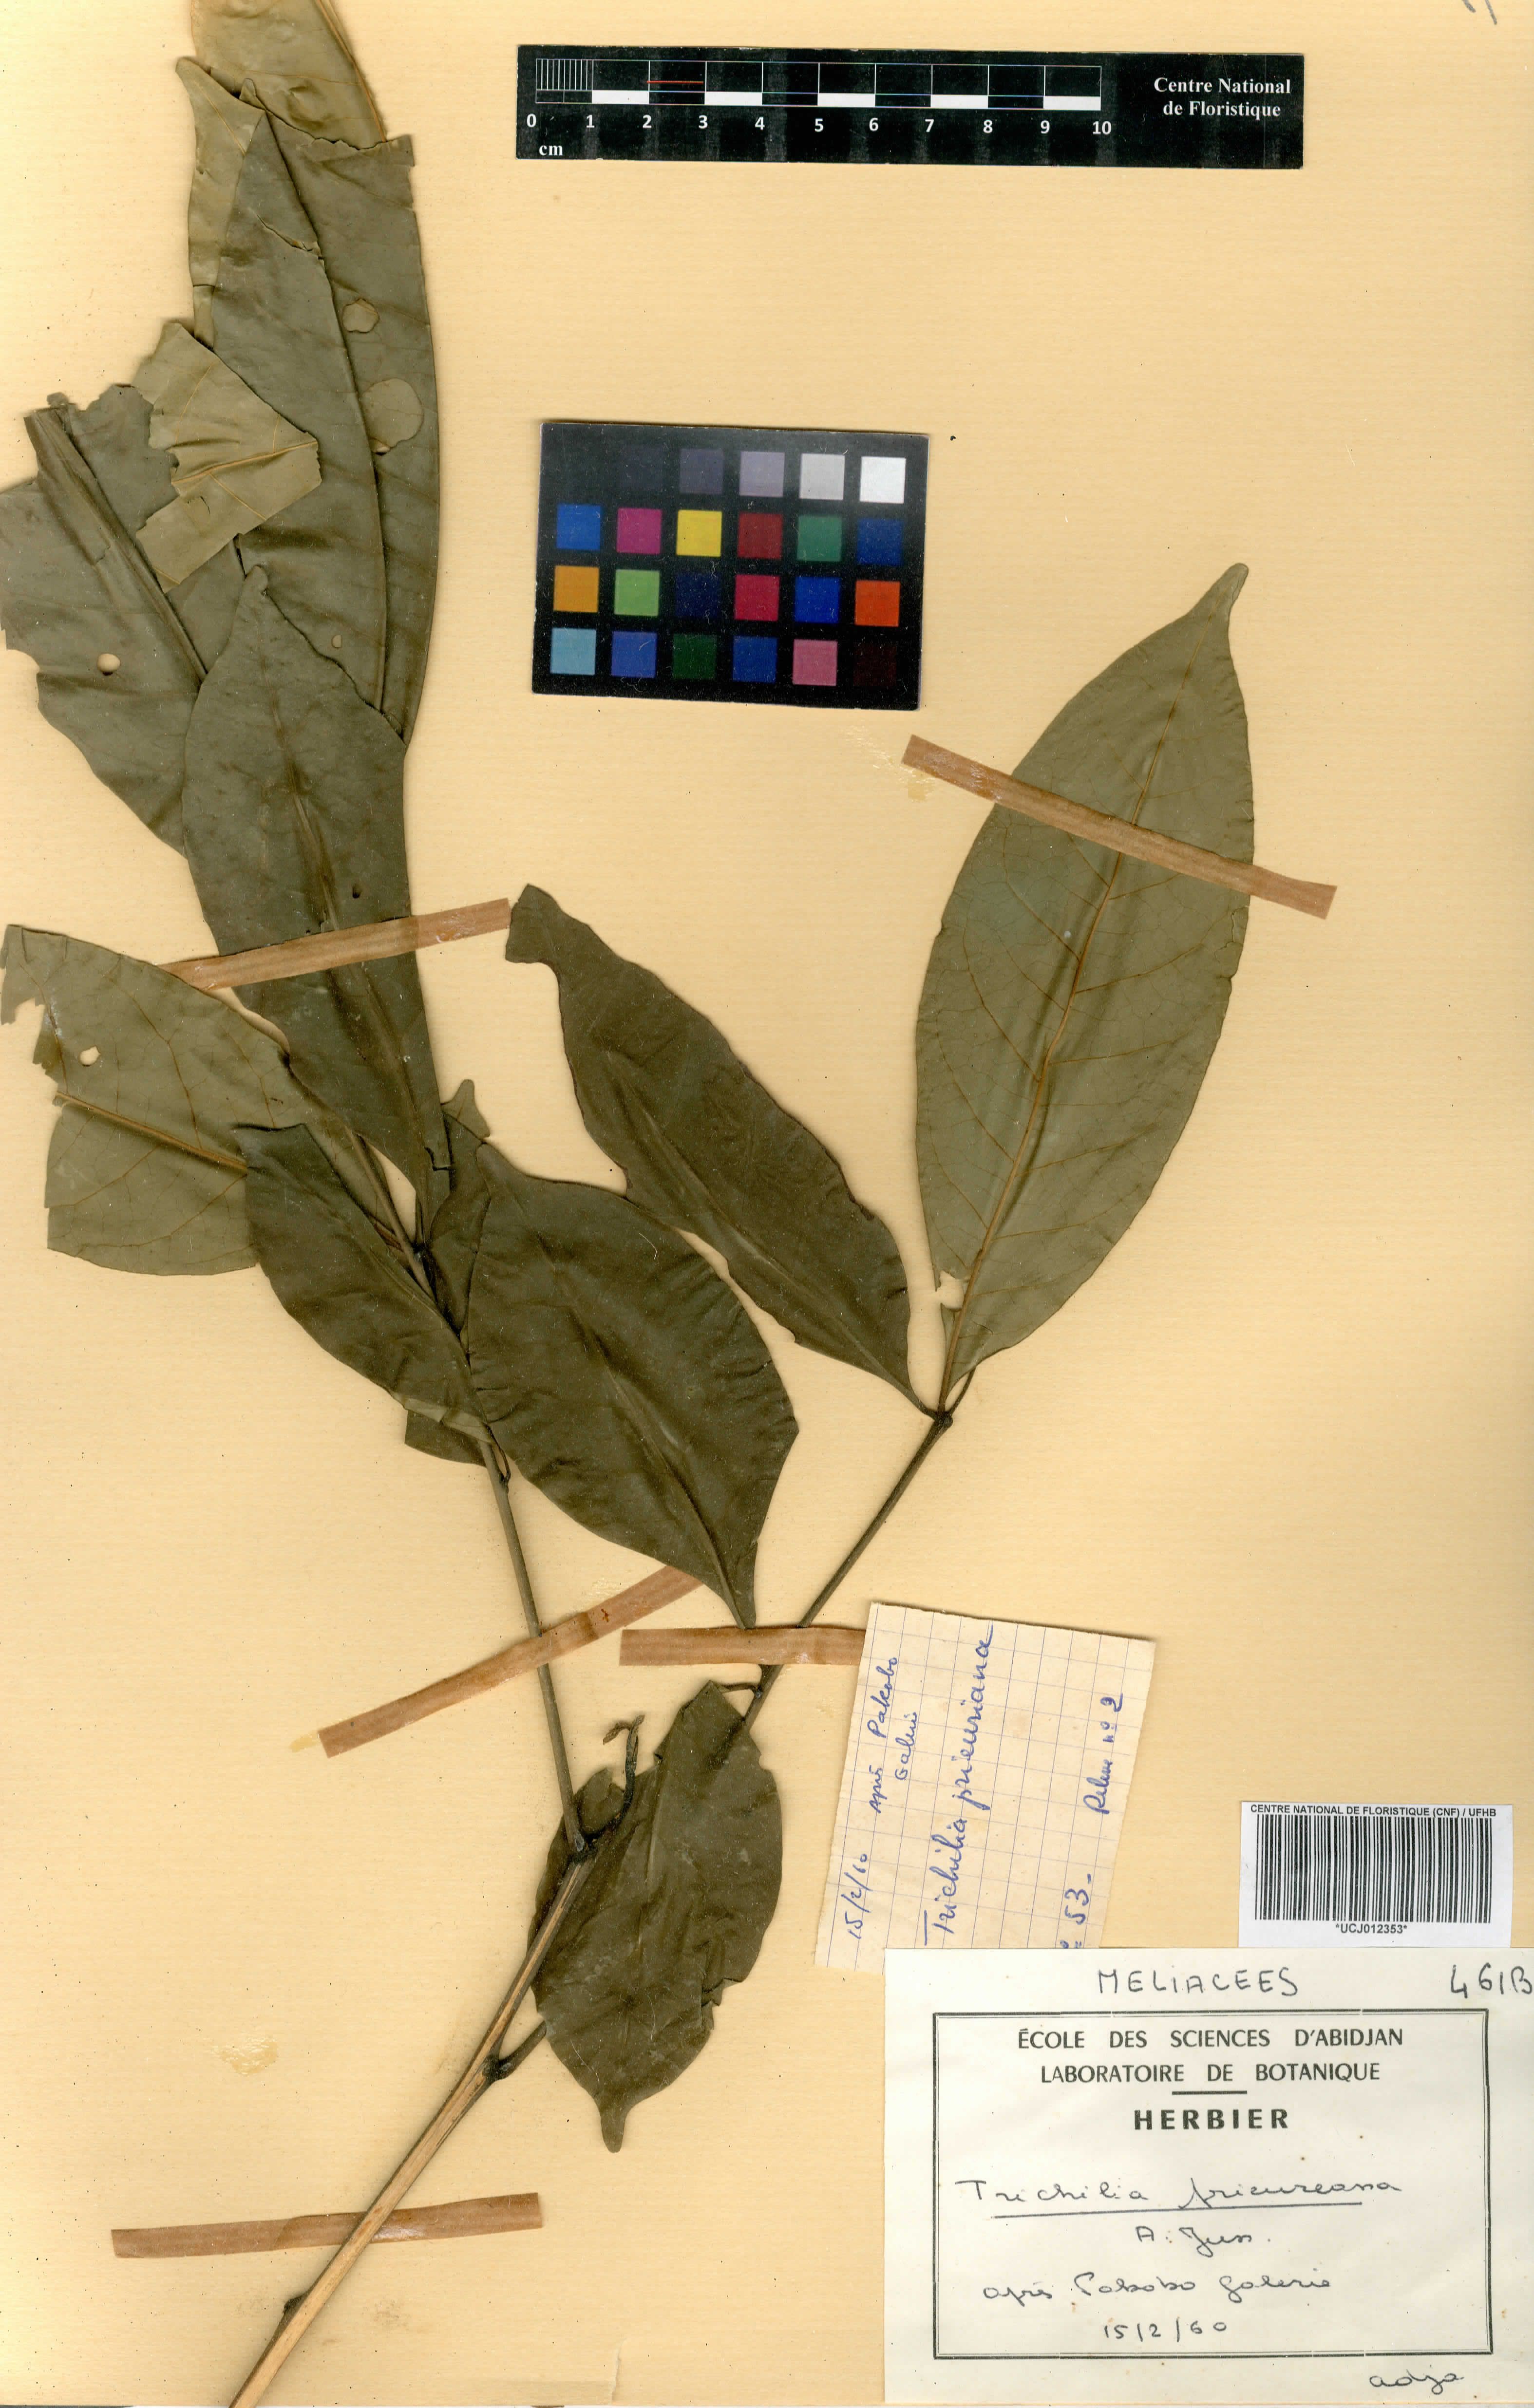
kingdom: Plantae
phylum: Tracheophyta
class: Magnoliopsida
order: Sapindales
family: Meliaceae
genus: Trichilia
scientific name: Trichilia prieureana
